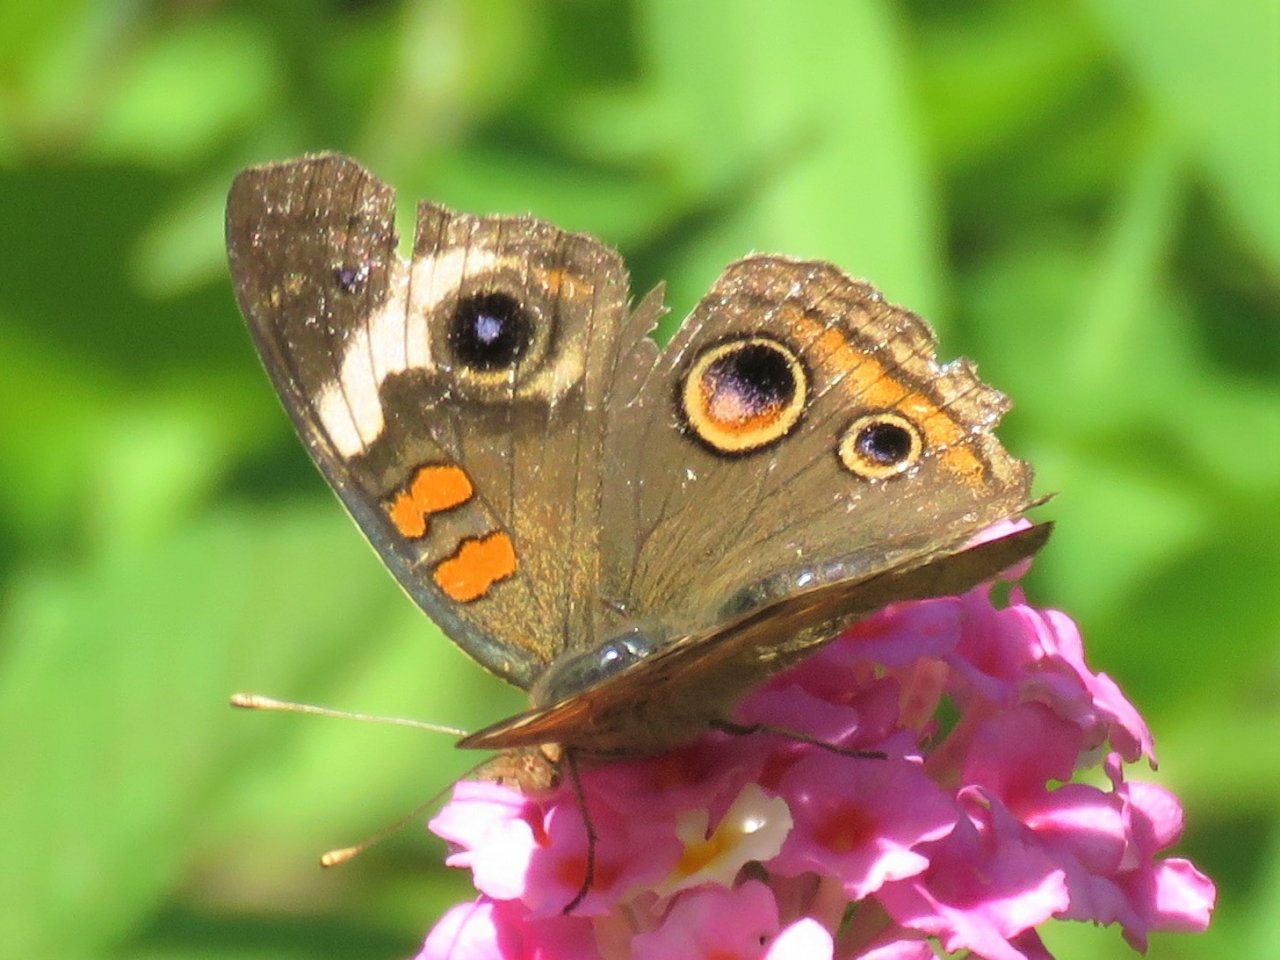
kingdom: Animalia
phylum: Arthropoda
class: Insecta
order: Lepidoptera
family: Nymphalidae
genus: Junonia
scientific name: Junonia coenia
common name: Common Buckeye
